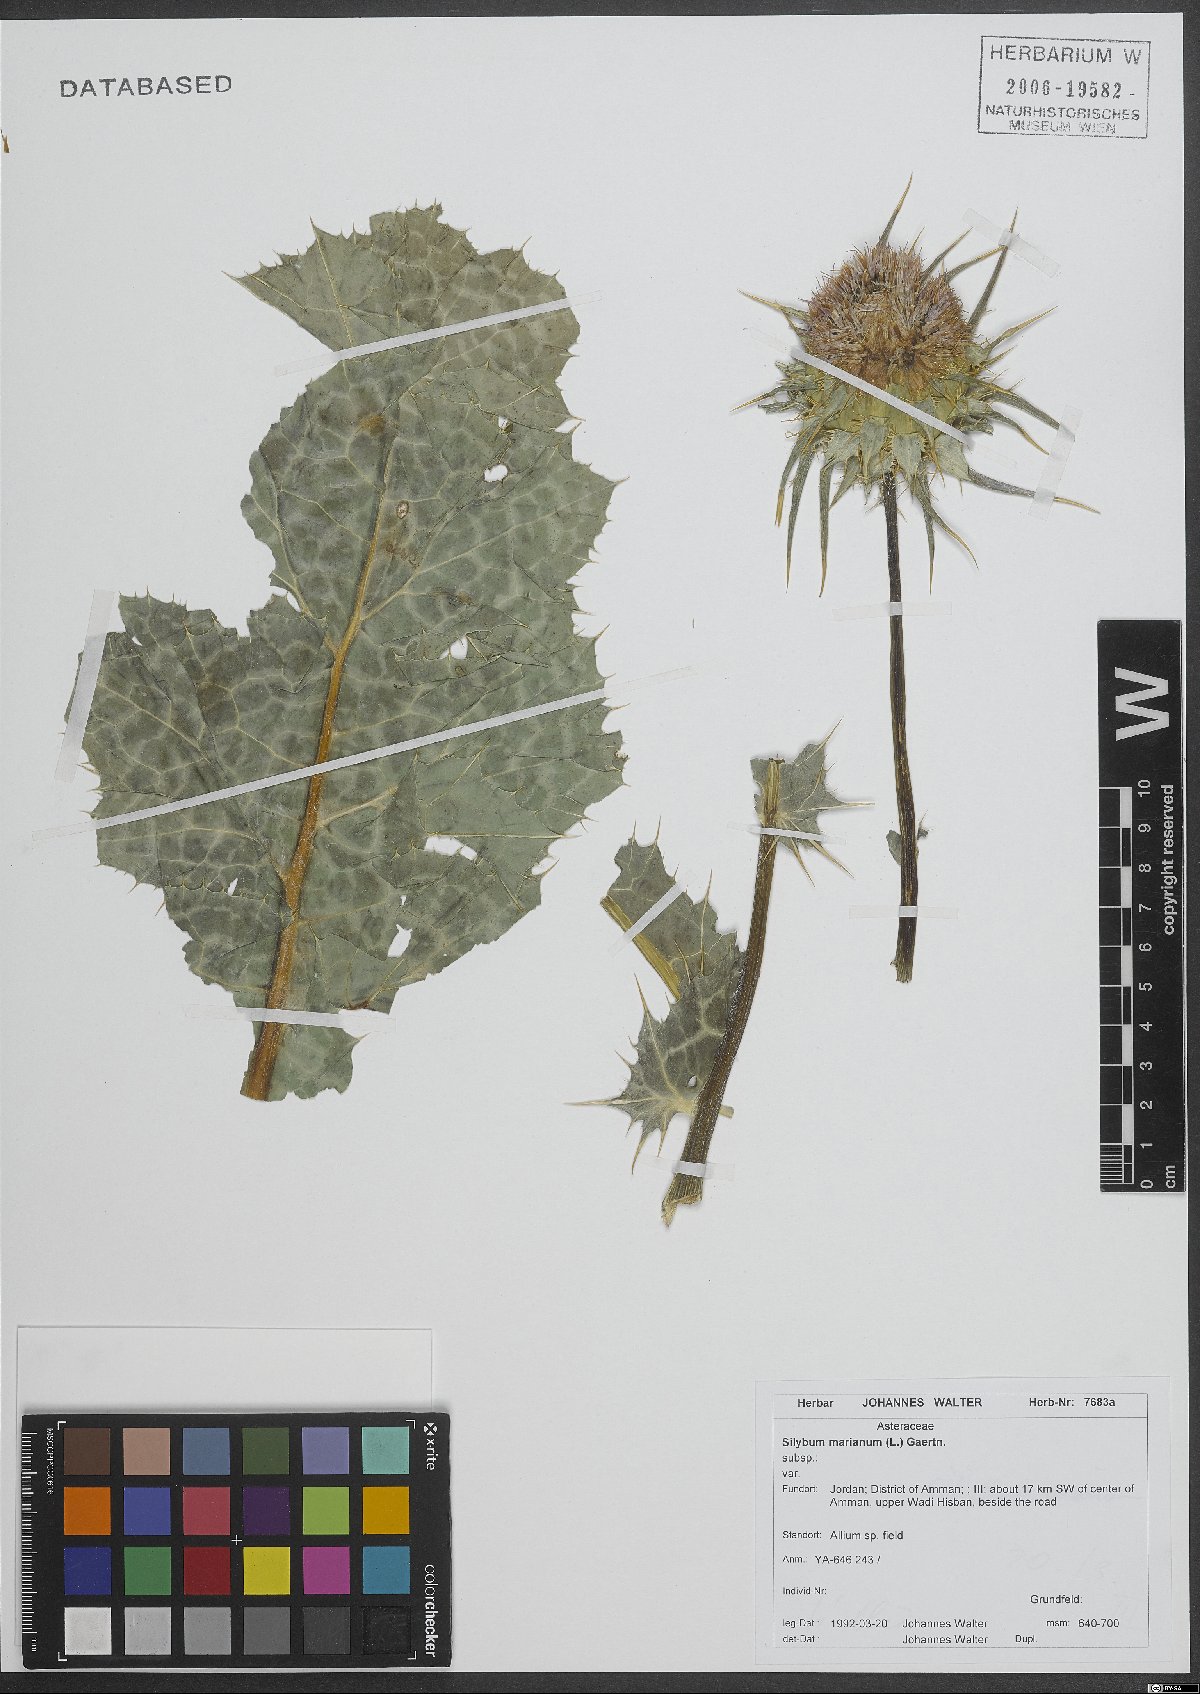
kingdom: Plantae
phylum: Tracheophyta
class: Magnoliopsida
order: Asterales
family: Asteraceae
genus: Silybum
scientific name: Silybum marianum
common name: Milk thistle
